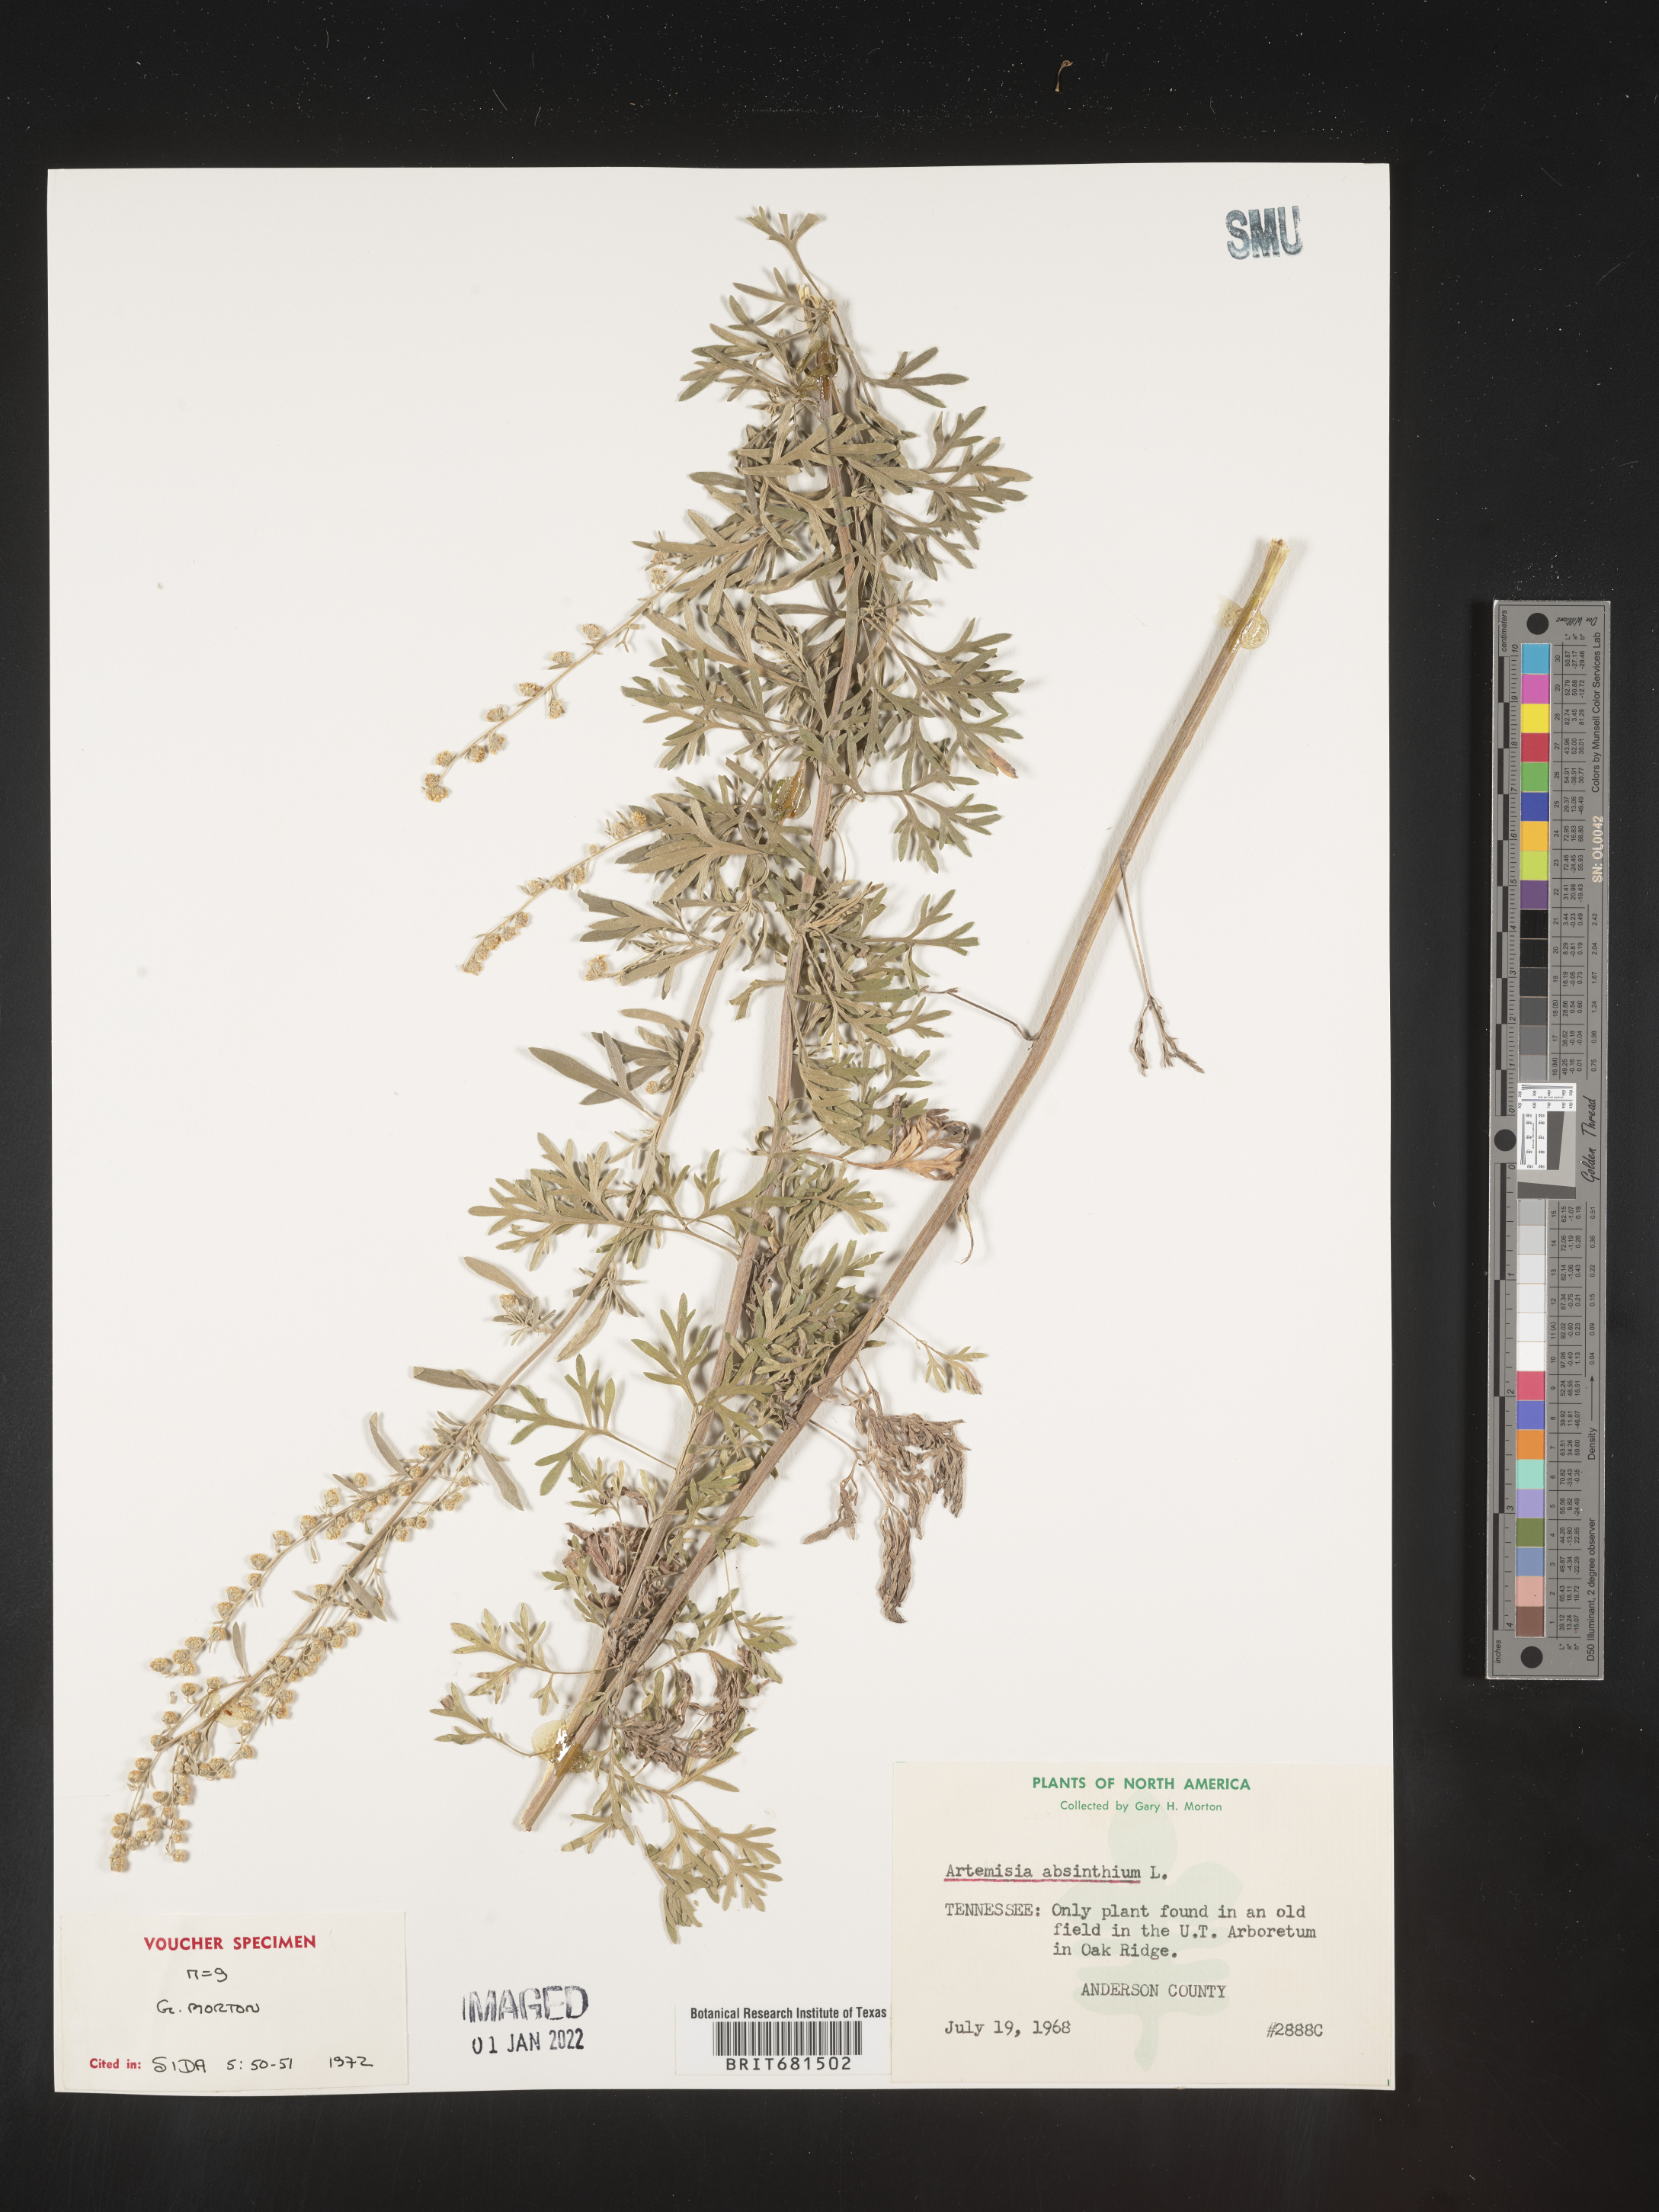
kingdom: Plantae
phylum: Tracheophyta
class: Magnoliopsida
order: Asterales
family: Asteraceae
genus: Artemisia
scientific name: Artemisia absinthium
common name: Wormwood
